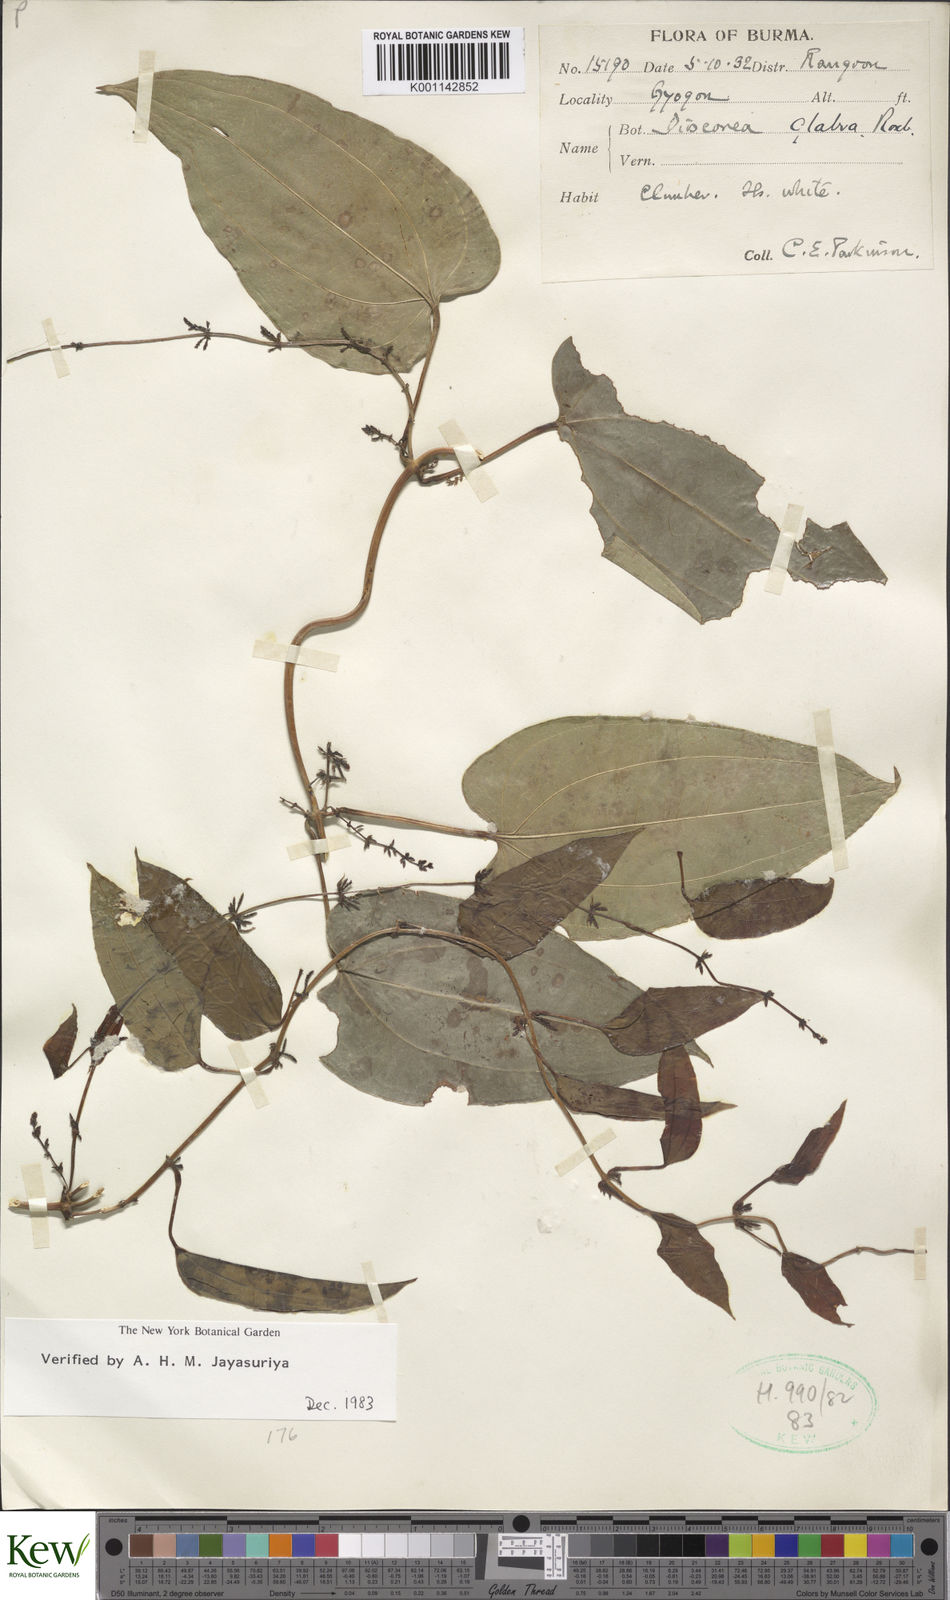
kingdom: Plantae
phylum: Tracheophyta
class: Liliopsida
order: Dioscoreales
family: Dioscoreaceae
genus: Dioscorea
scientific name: Dioscorea glabra
